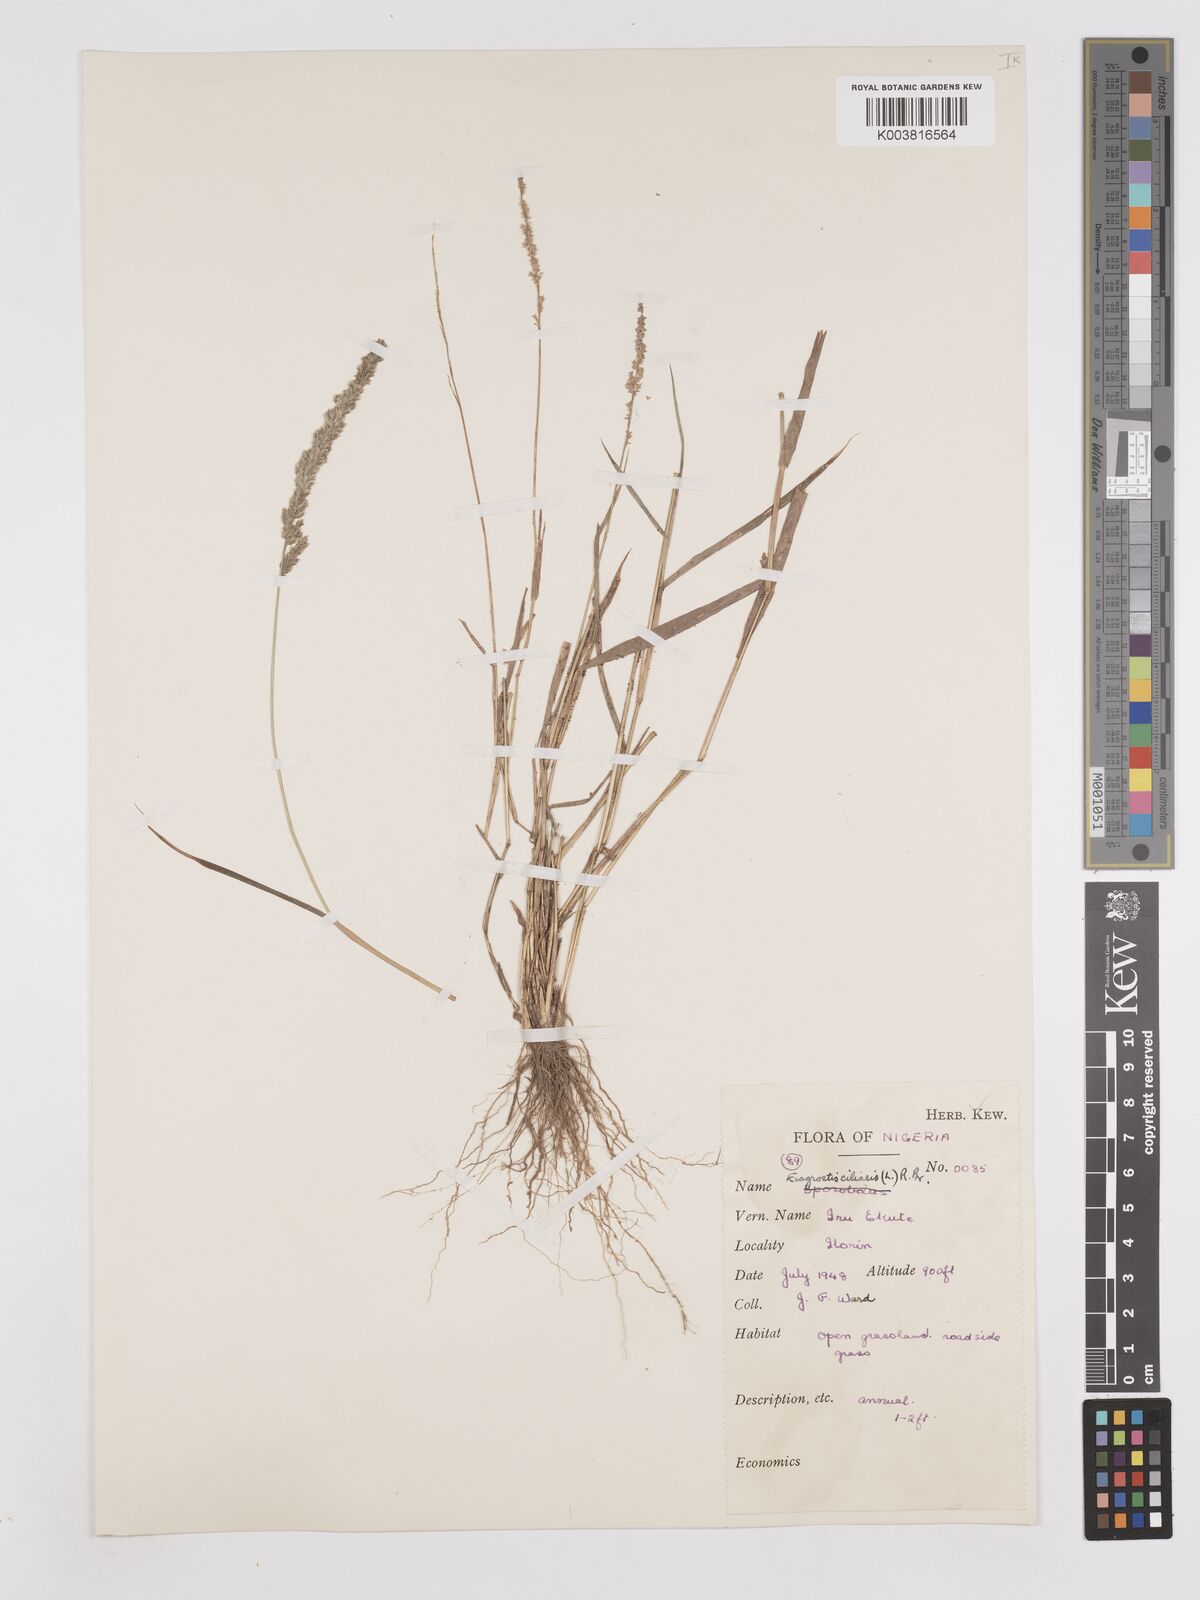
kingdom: Plantae
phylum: Tracheophyta
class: Liliopsida
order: Poales
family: Poaceae
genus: Eragrostis
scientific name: Eragrostis ciliaris
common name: Gophertail lovegrass
